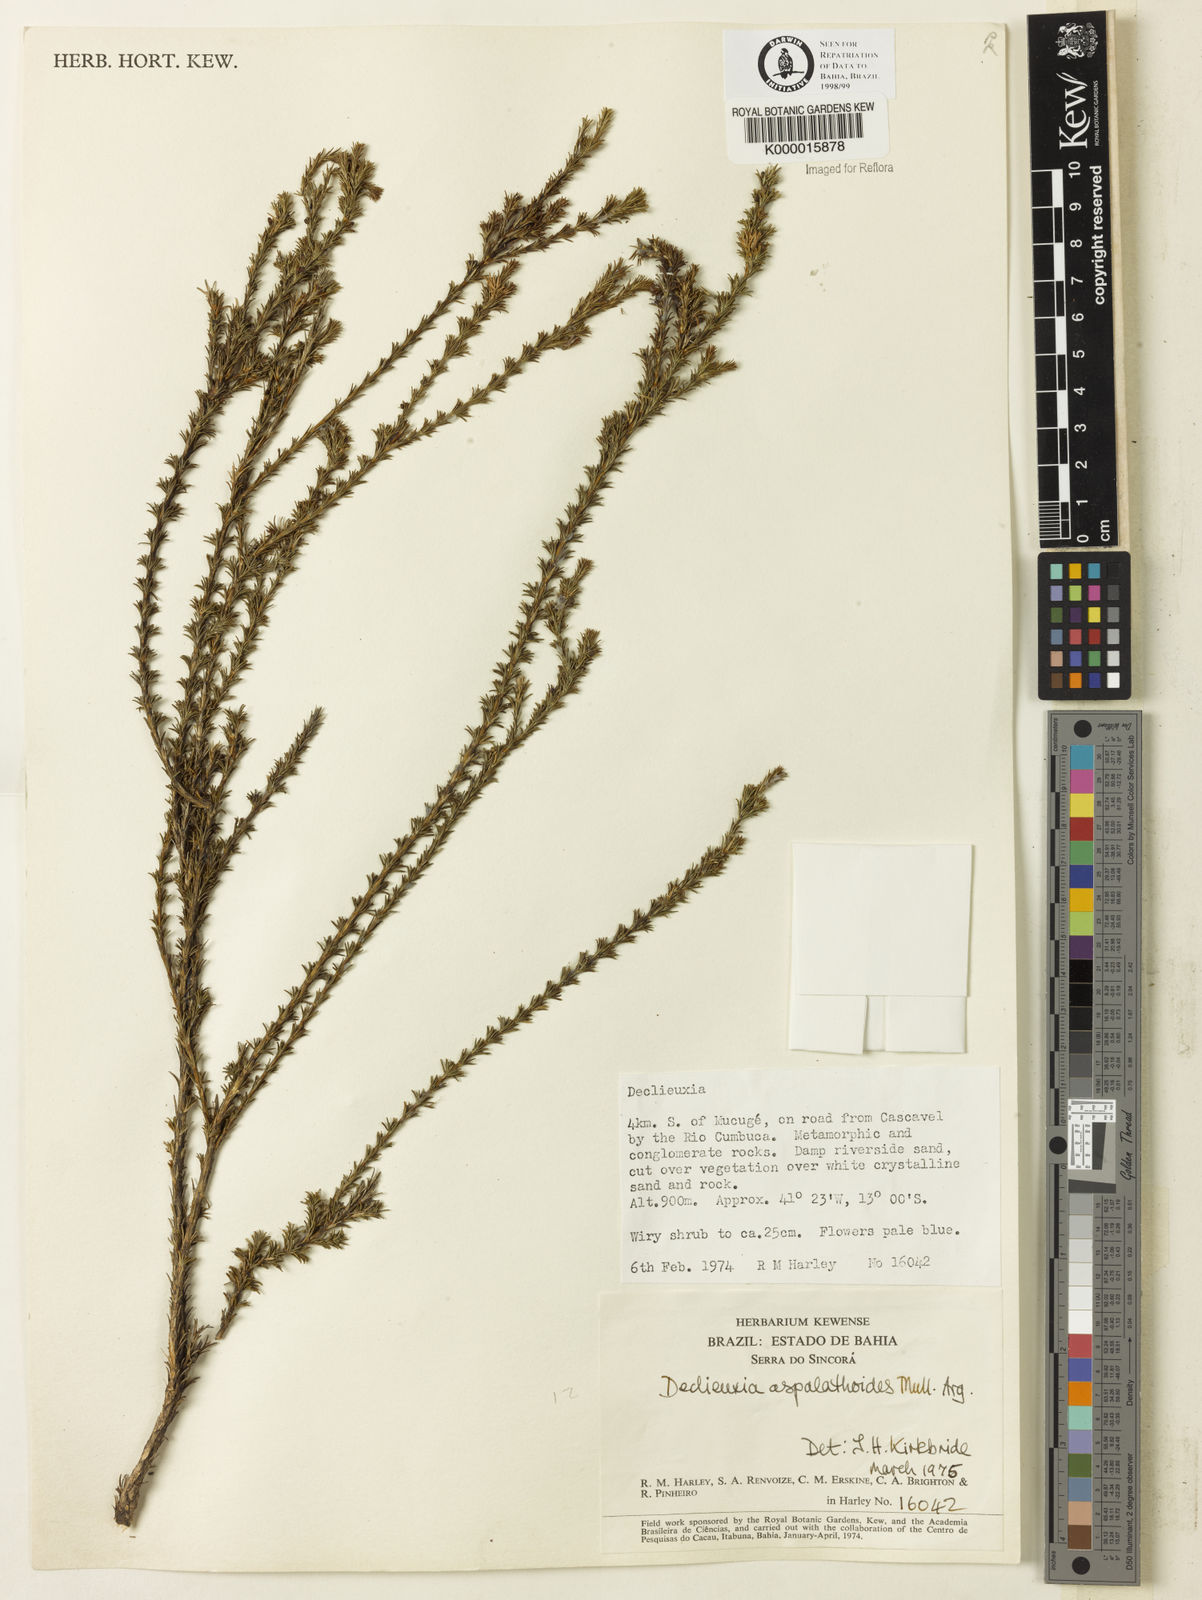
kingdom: Plantae
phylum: Tracheophyta
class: Magnoliopsida
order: Gentianales
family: Rubiaceae
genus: Declieuxia
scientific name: Declieuxia aspalathoides
